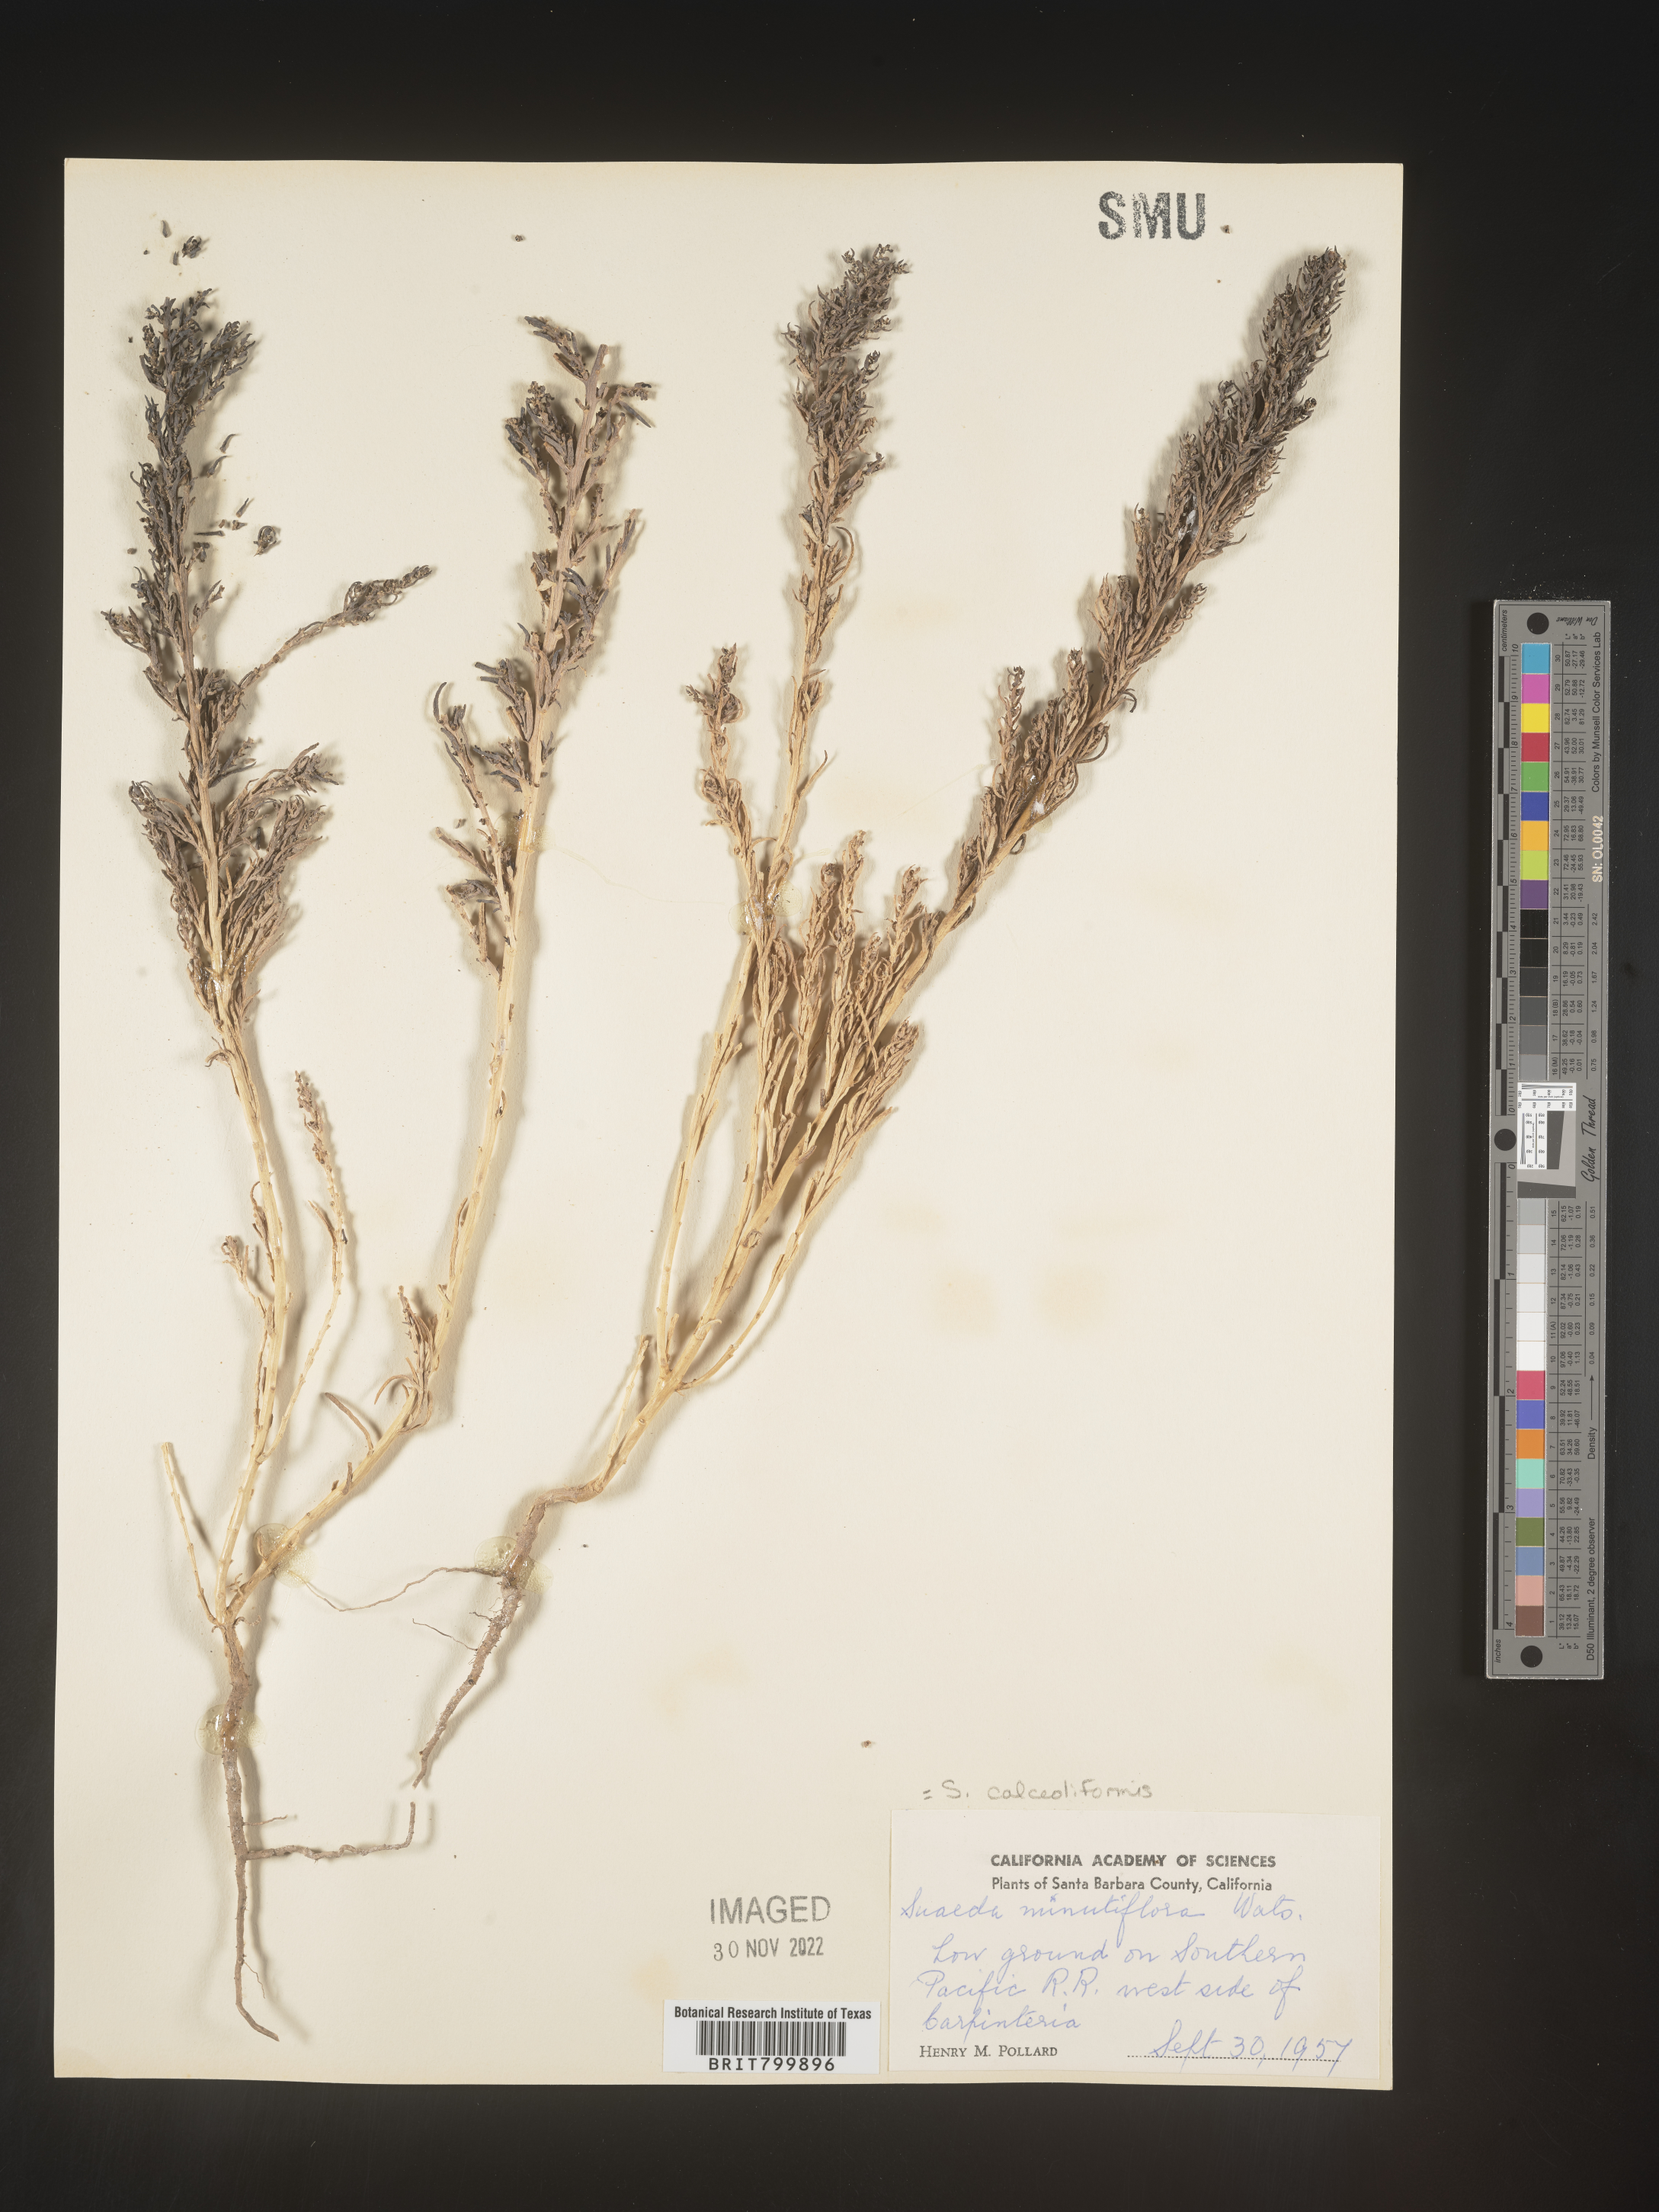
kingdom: Plantae
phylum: Tracheophyta
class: Magnoliopsida
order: Caryophyllales
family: Amaranthaceae
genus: Suaeda
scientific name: Suaeda calceoliformis
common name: Pursh's seepweed
